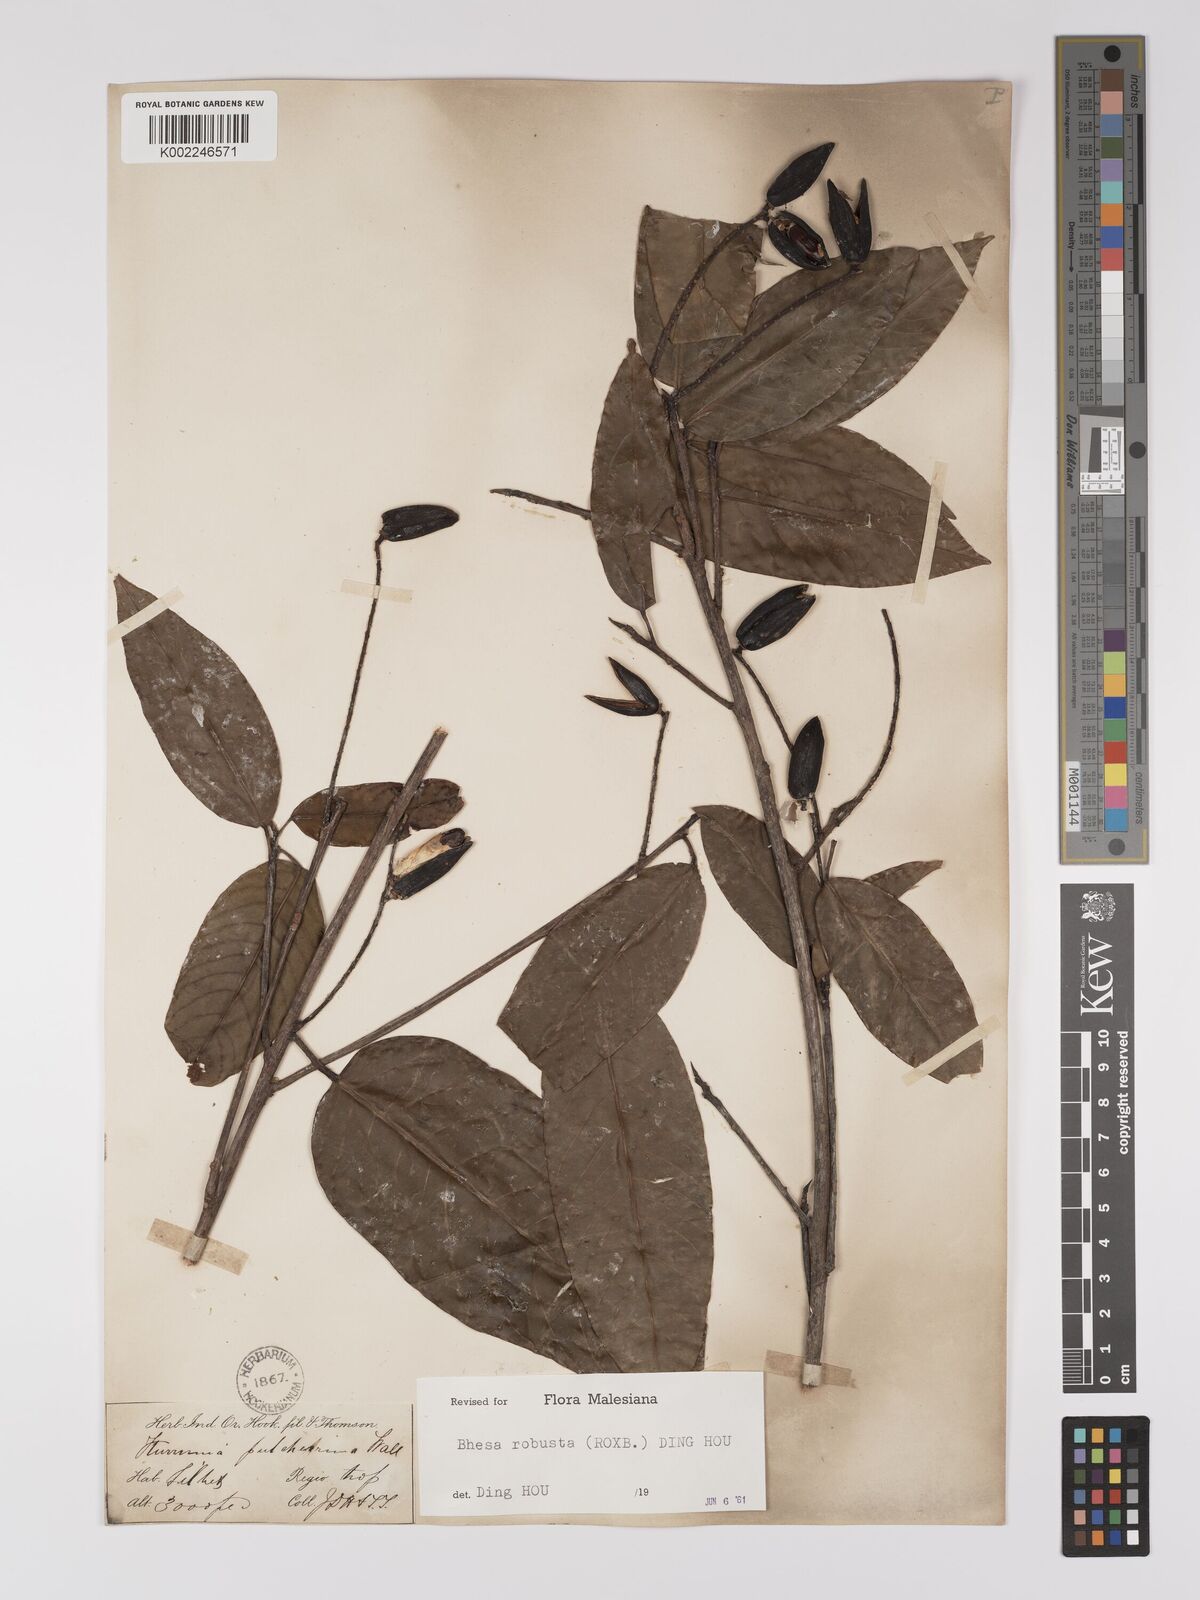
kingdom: Plantae
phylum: Tracheophyta
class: Magnoliopsida
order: Malpighiales
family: Centroplacaceae
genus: Bhesa
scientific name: Bhesa robusta
